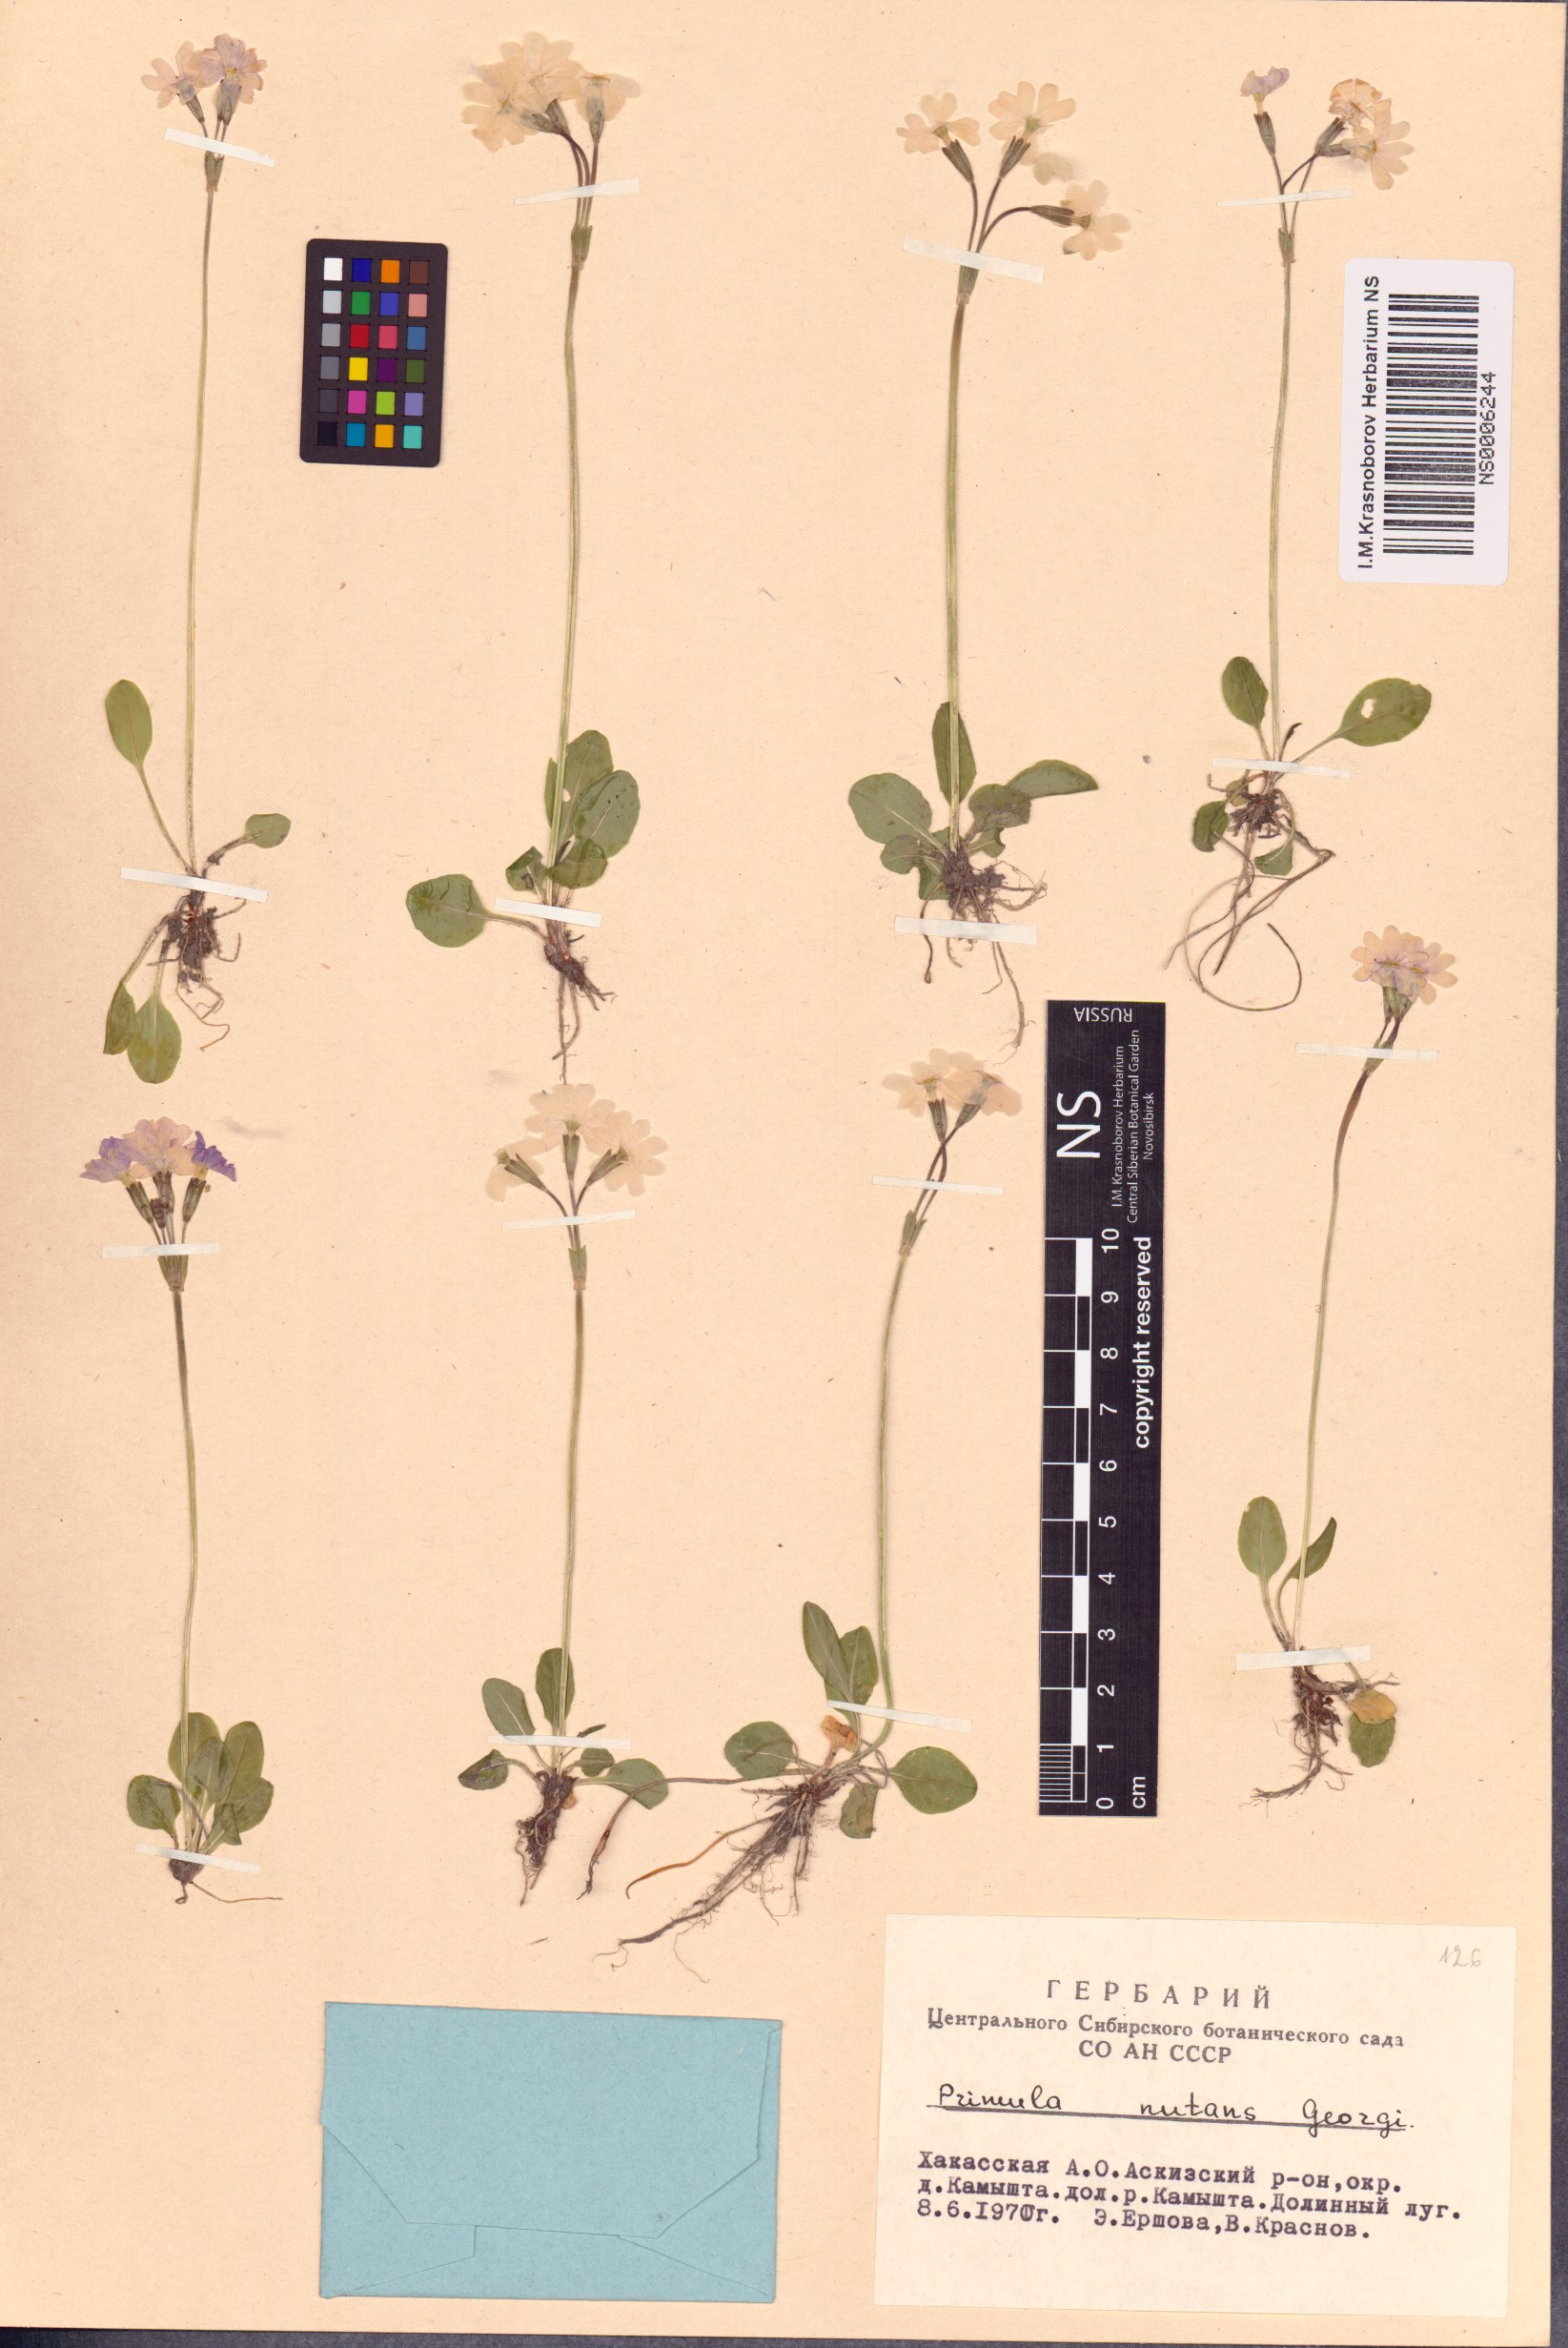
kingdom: Plantae
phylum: Tracheophyta
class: Magnoliopsida
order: Ericales
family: Primulaceae
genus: Primula
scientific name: Primula nutans
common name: Siberian primrose
